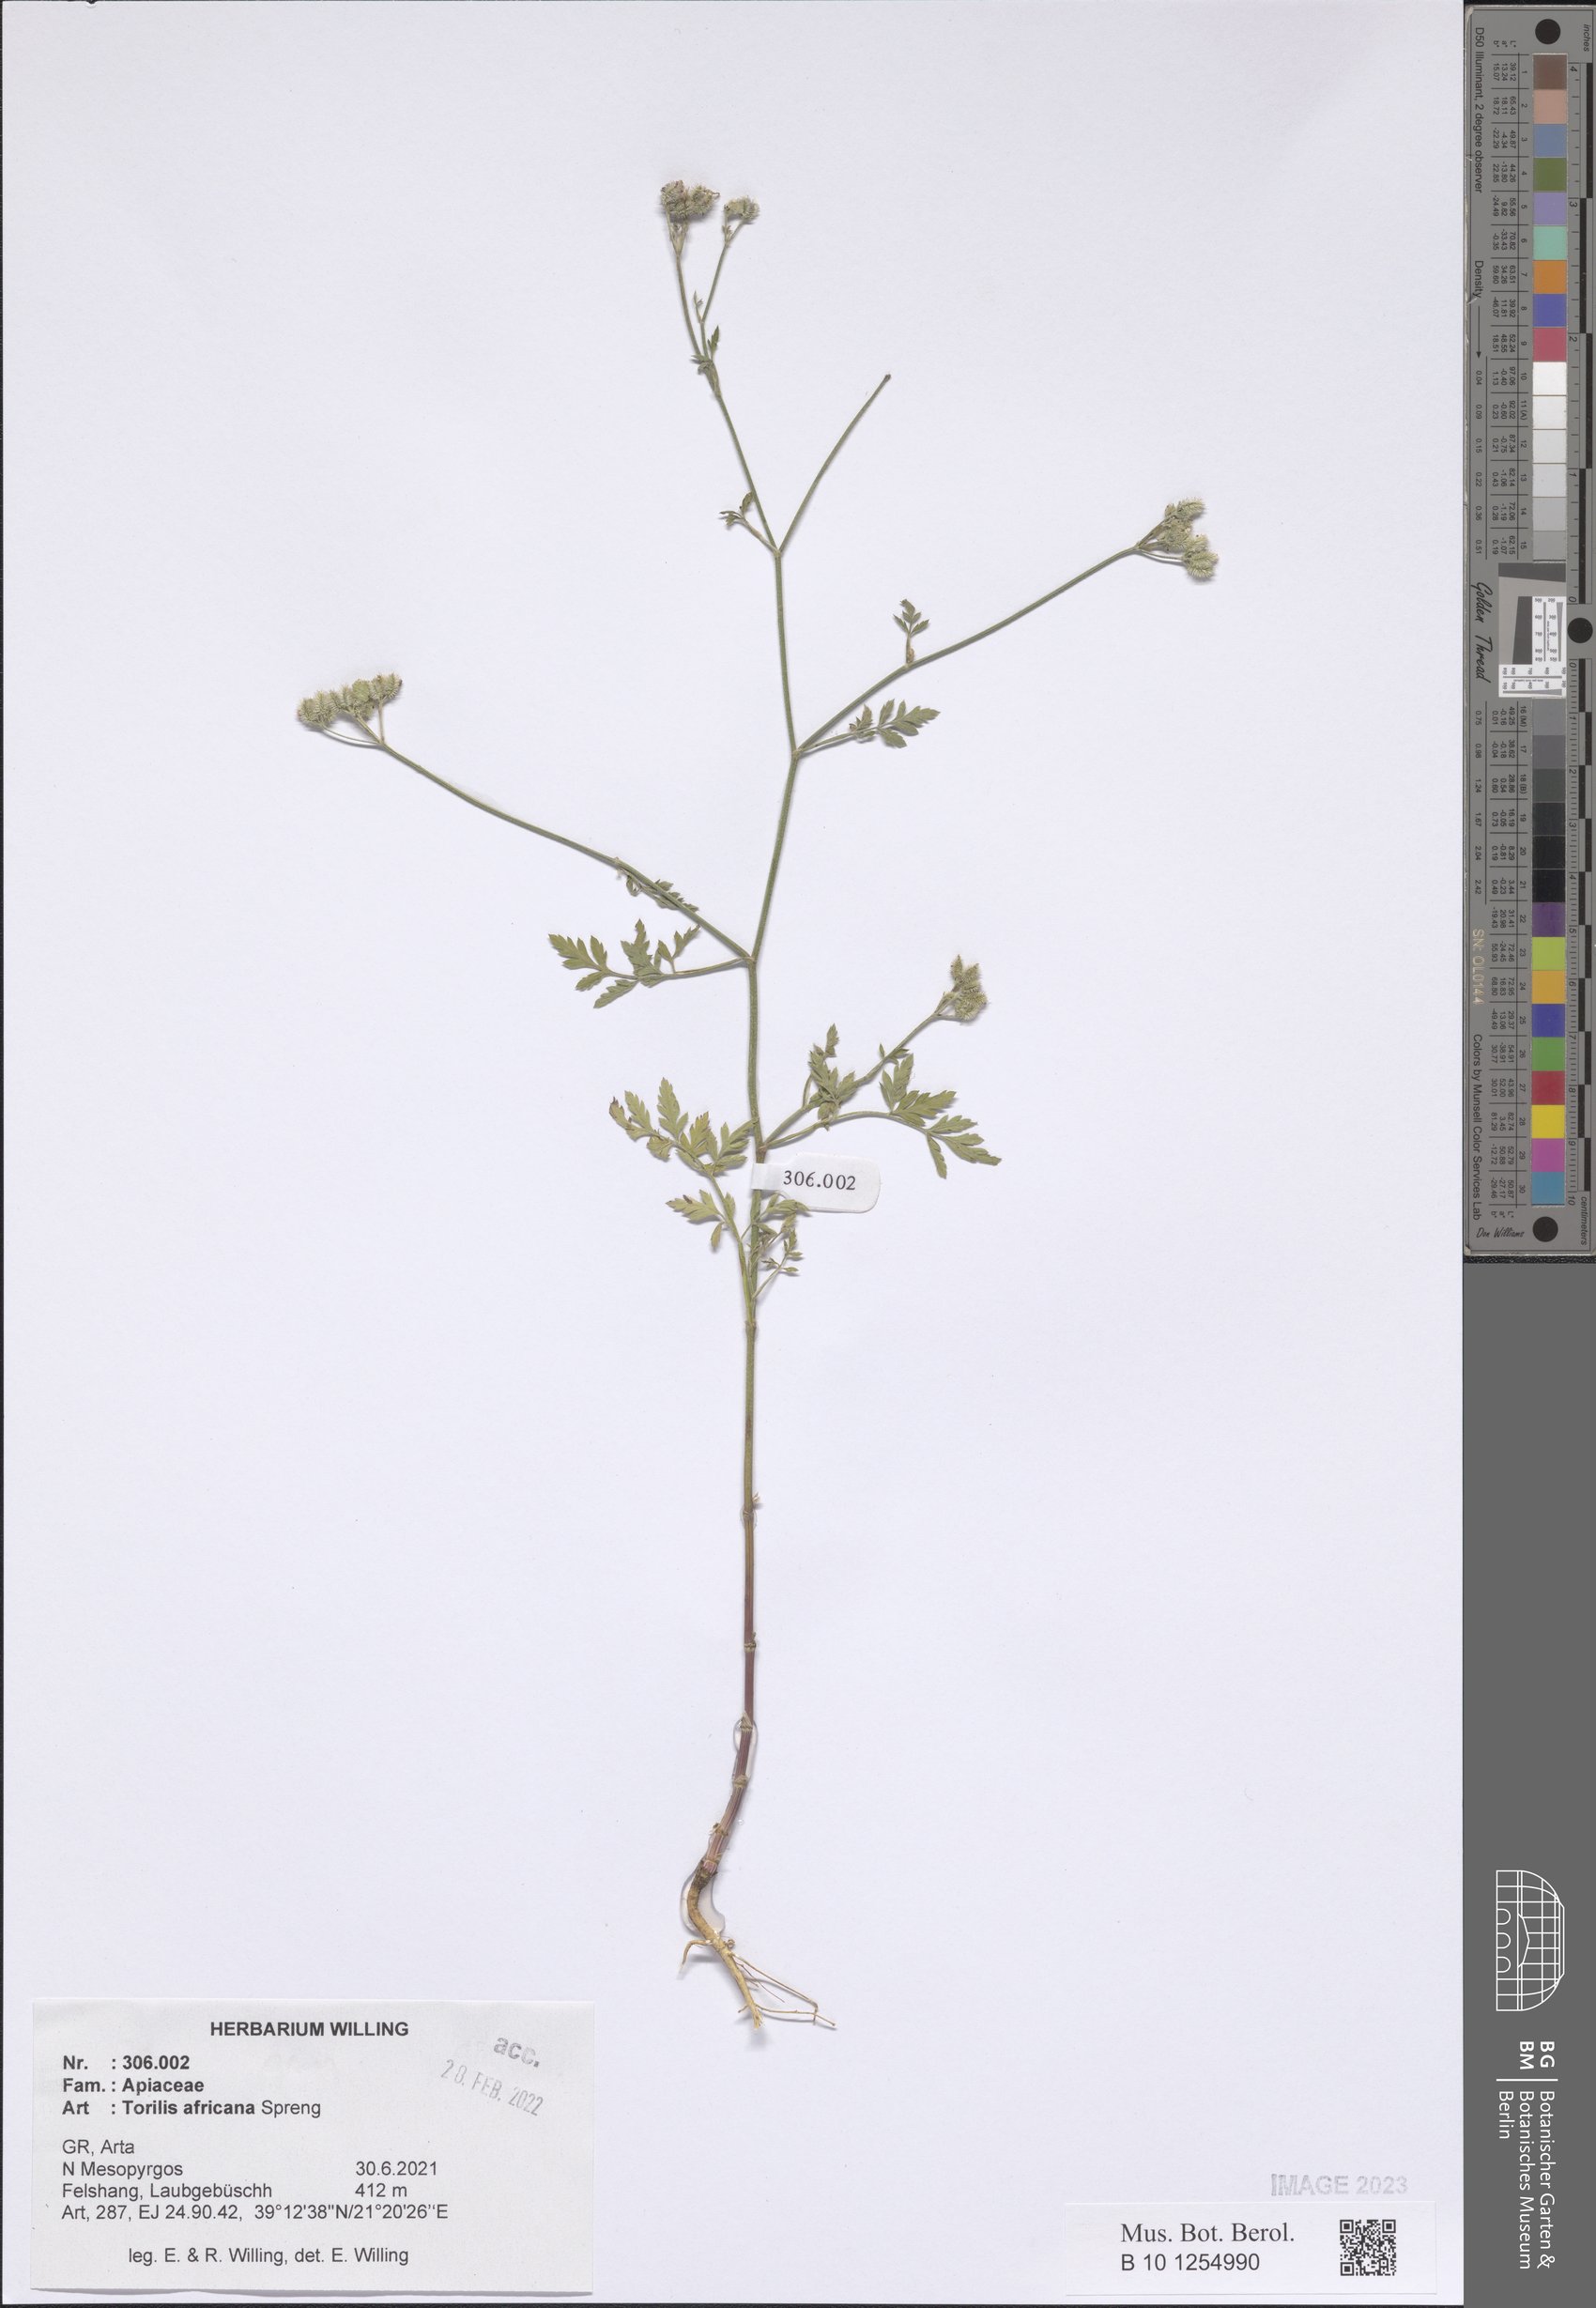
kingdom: Plantae
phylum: Tracheophyta
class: Magnoliopsida
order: Apiales
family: Apiaceae
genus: Torilis
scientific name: Torilis africana
